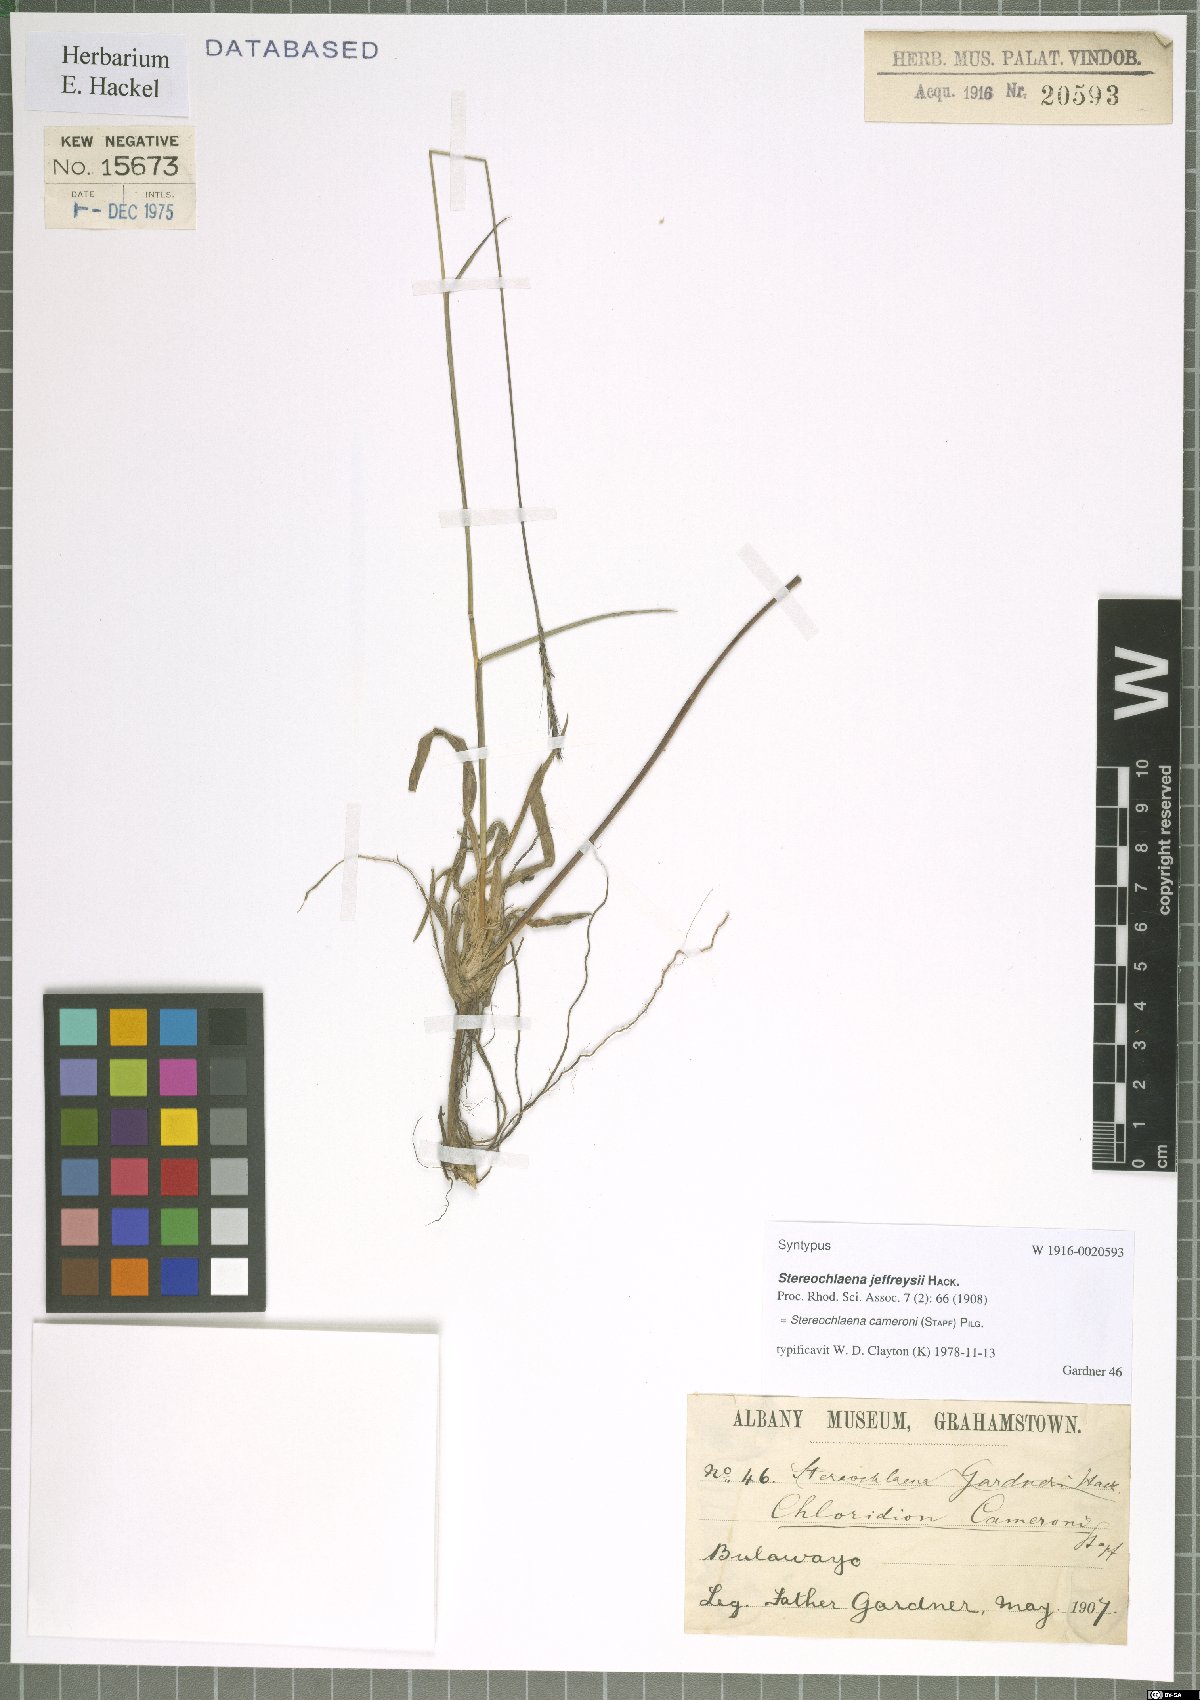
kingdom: Plantae
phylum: Tracheophyta
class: Liliopsida
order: Poales
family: Poaceae
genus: Stereochlaena
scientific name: Stereochlaena cameronii
